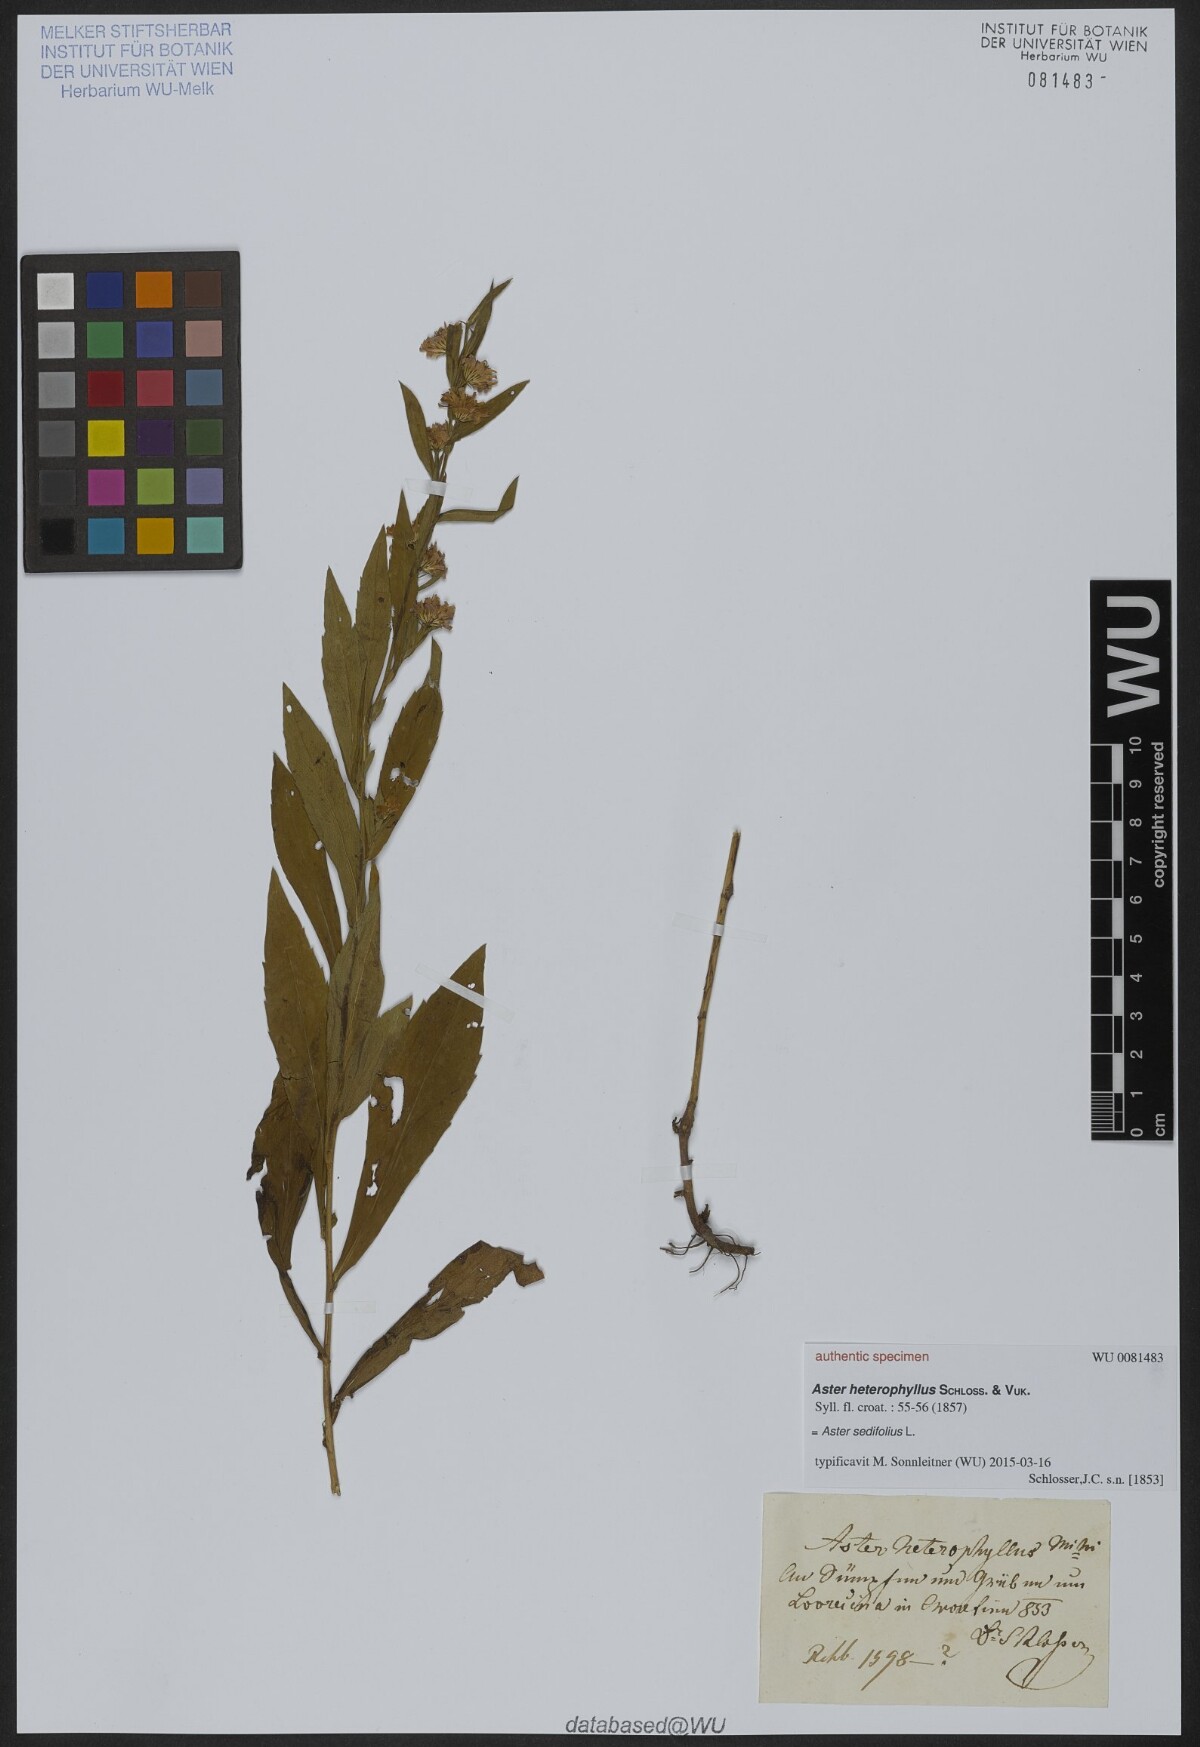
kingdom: Plantae
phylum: Tracheophyta
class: Magnoliopsida
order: Asterales
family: Asteraceae
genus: Aster
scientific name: Aster heterophyllus
